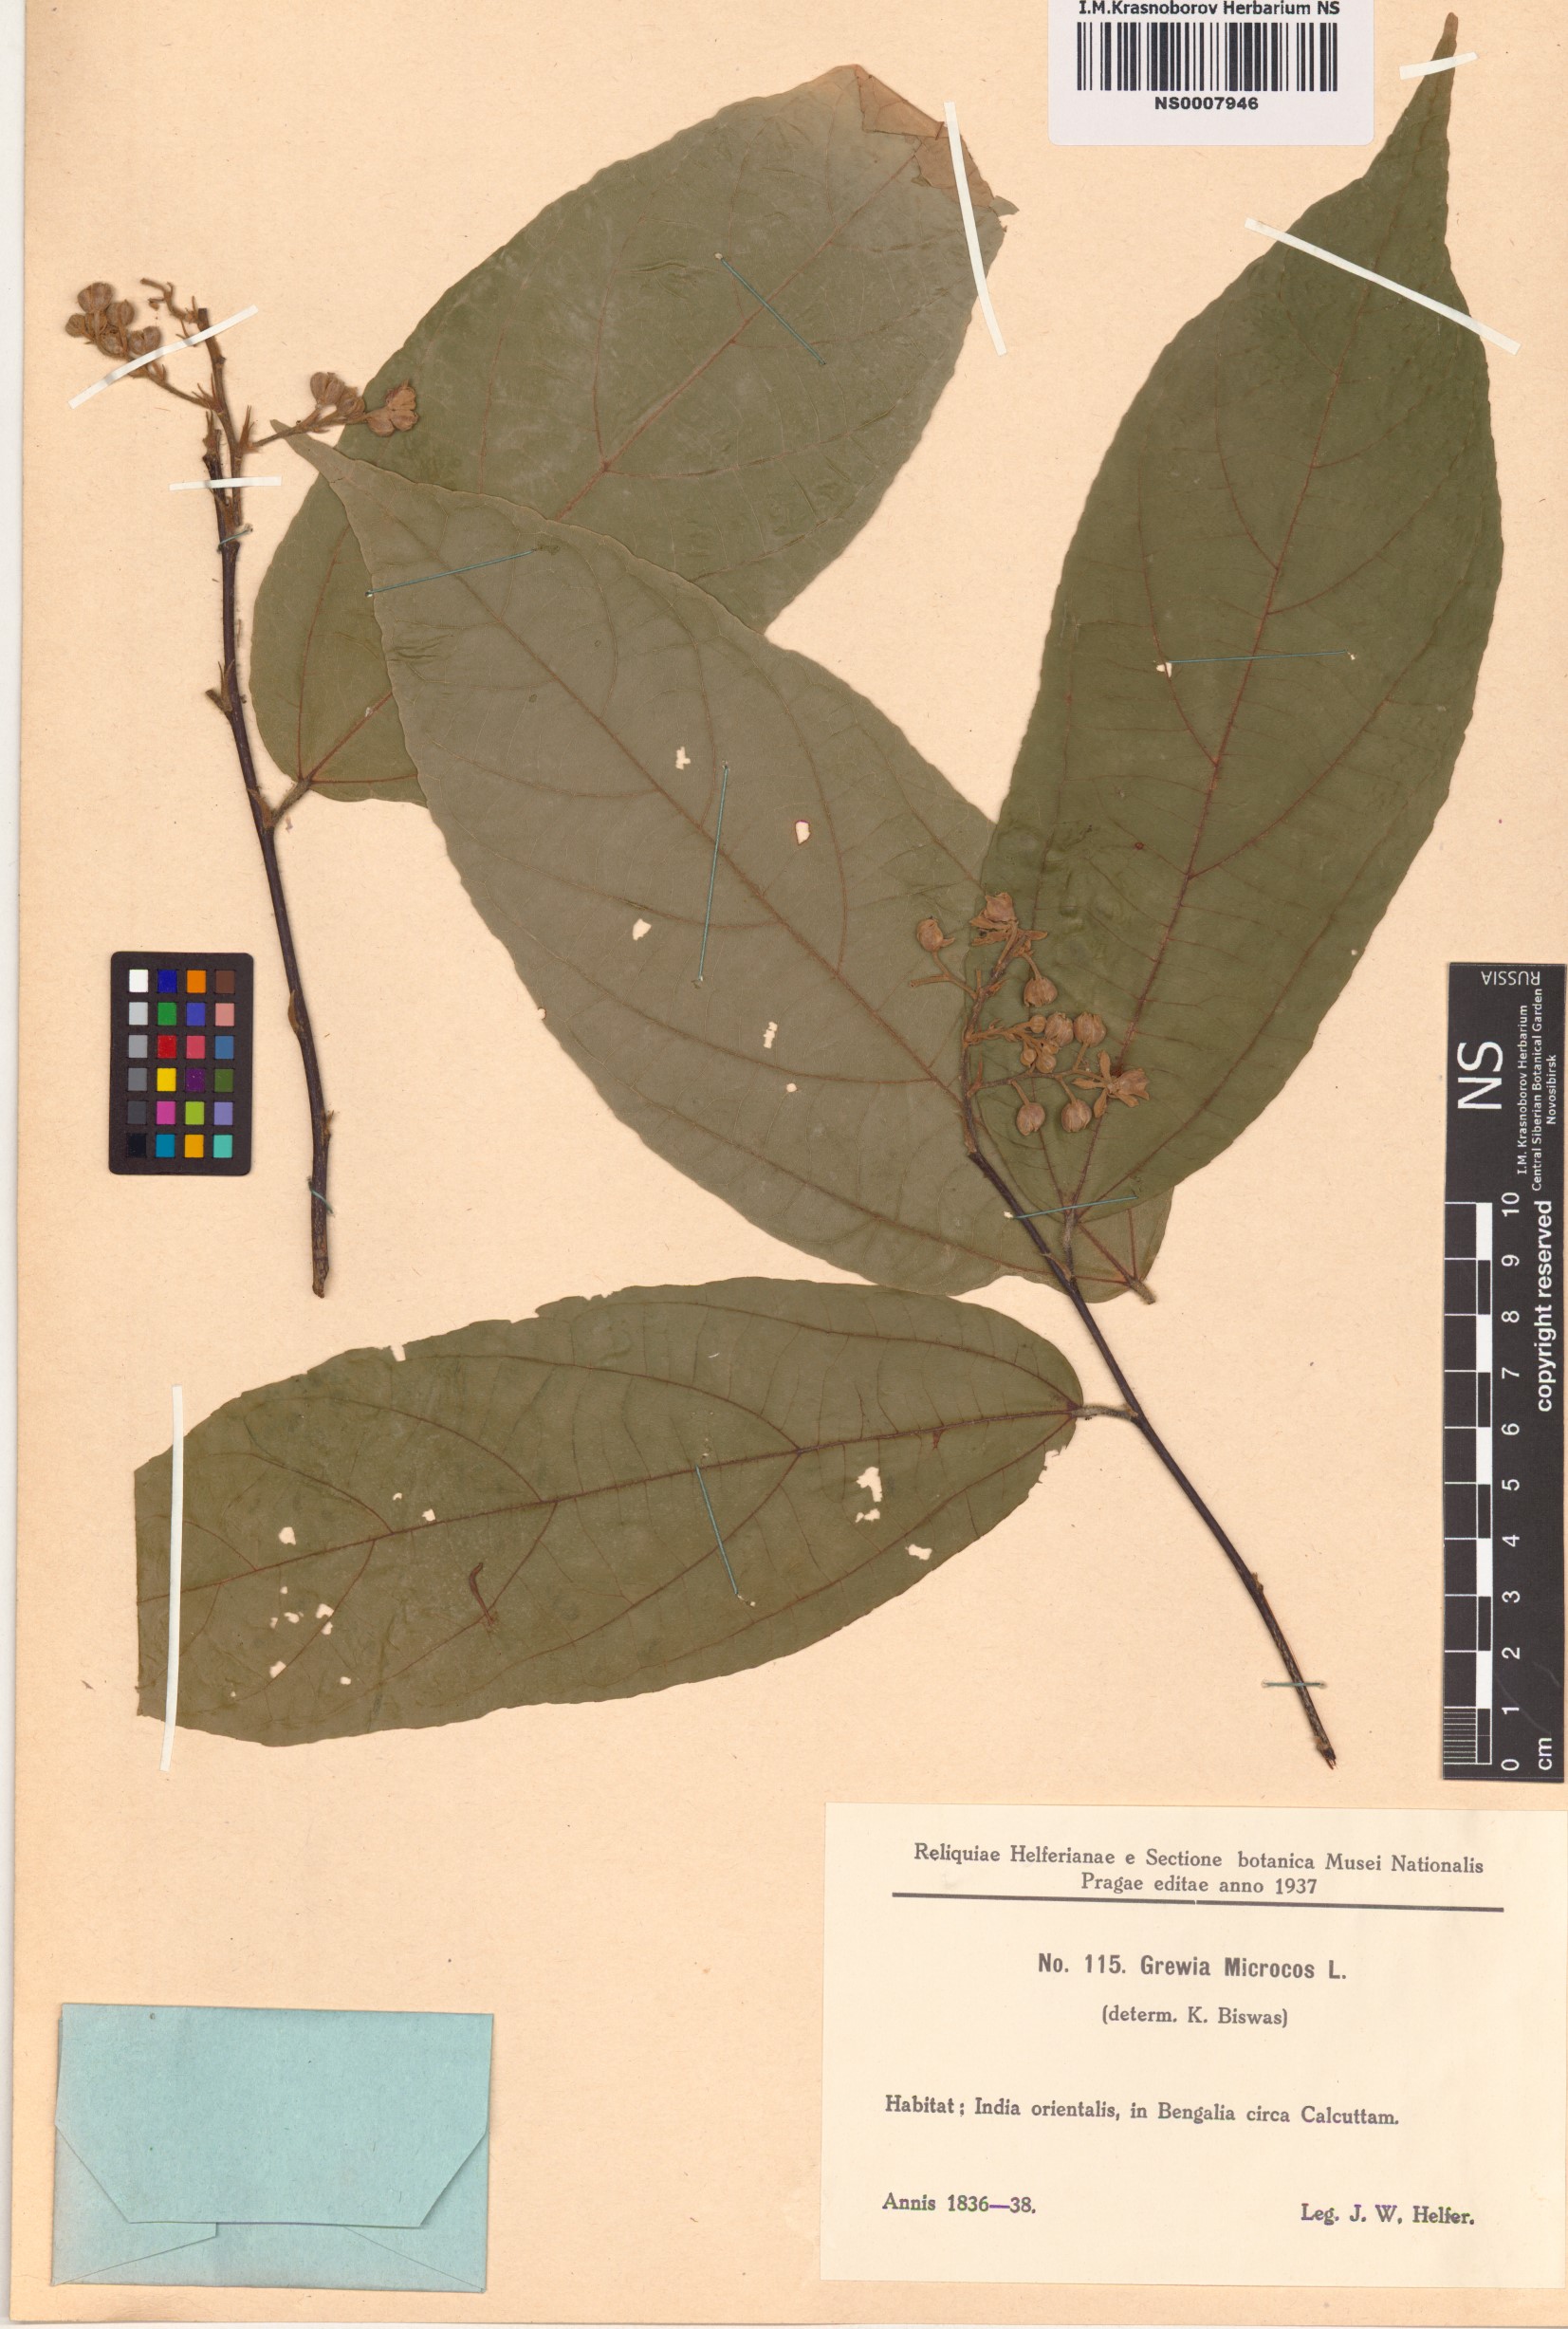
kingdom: Plantae
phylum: Tracheophyta
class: Magnoliopsida
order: Malvales
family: Malvaceae
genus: Microcos
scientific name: Microcos paniculata
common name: Microcos
